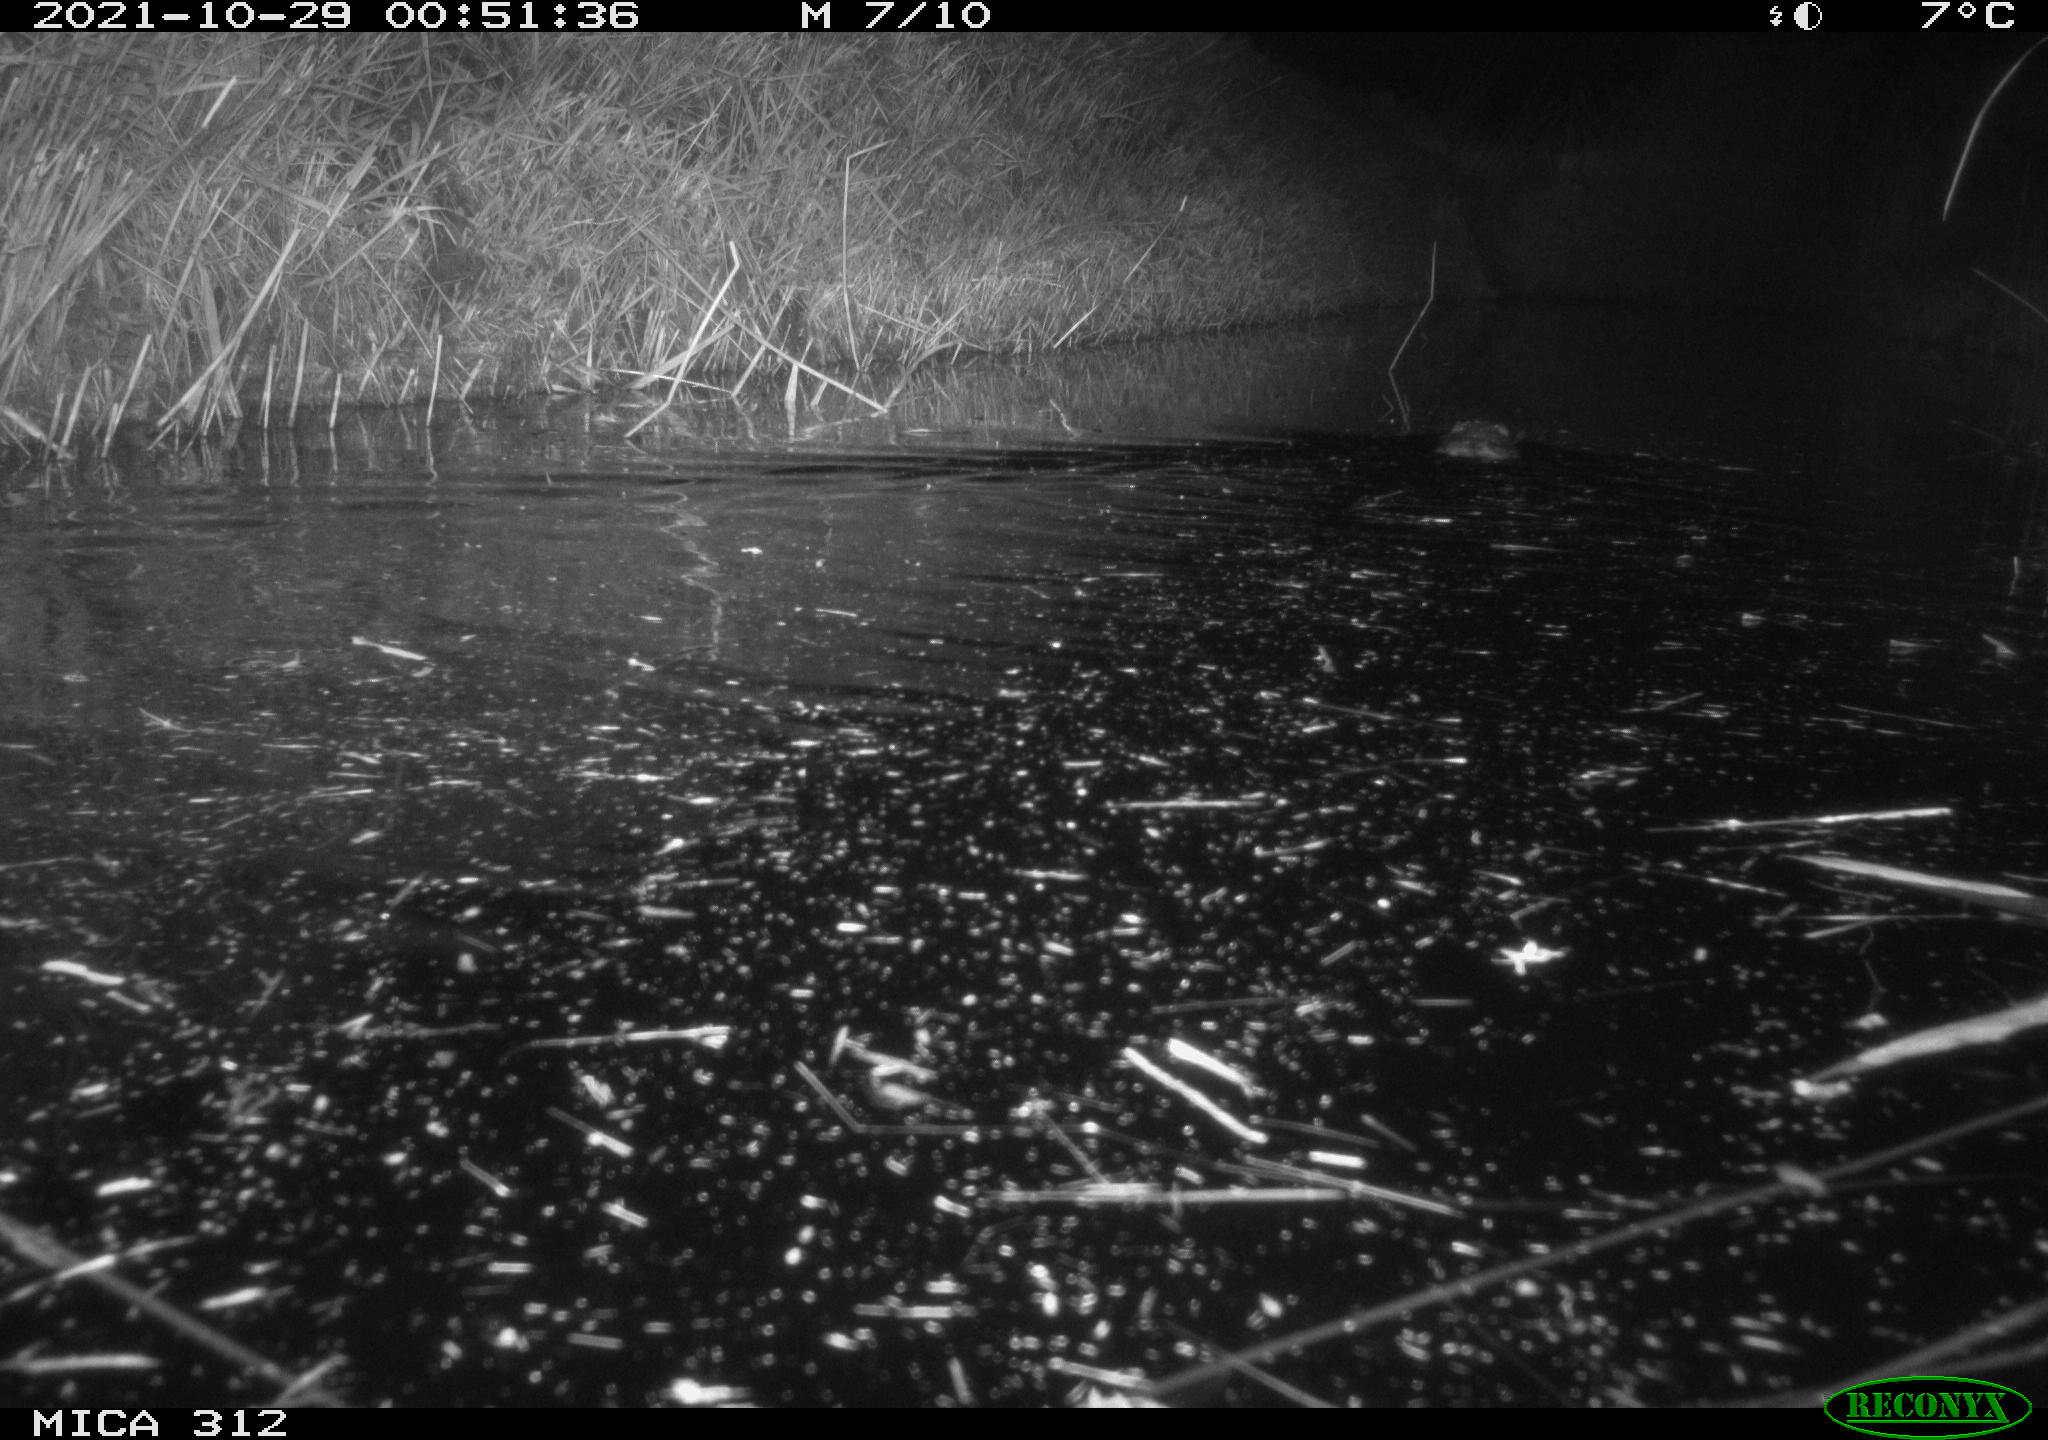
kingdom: Animalia
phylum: Chordata
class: Mammalia
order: Rodentia
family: Cricetidae
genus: Ondatra
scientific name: Ondatra zibethicus
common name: Muskrat
